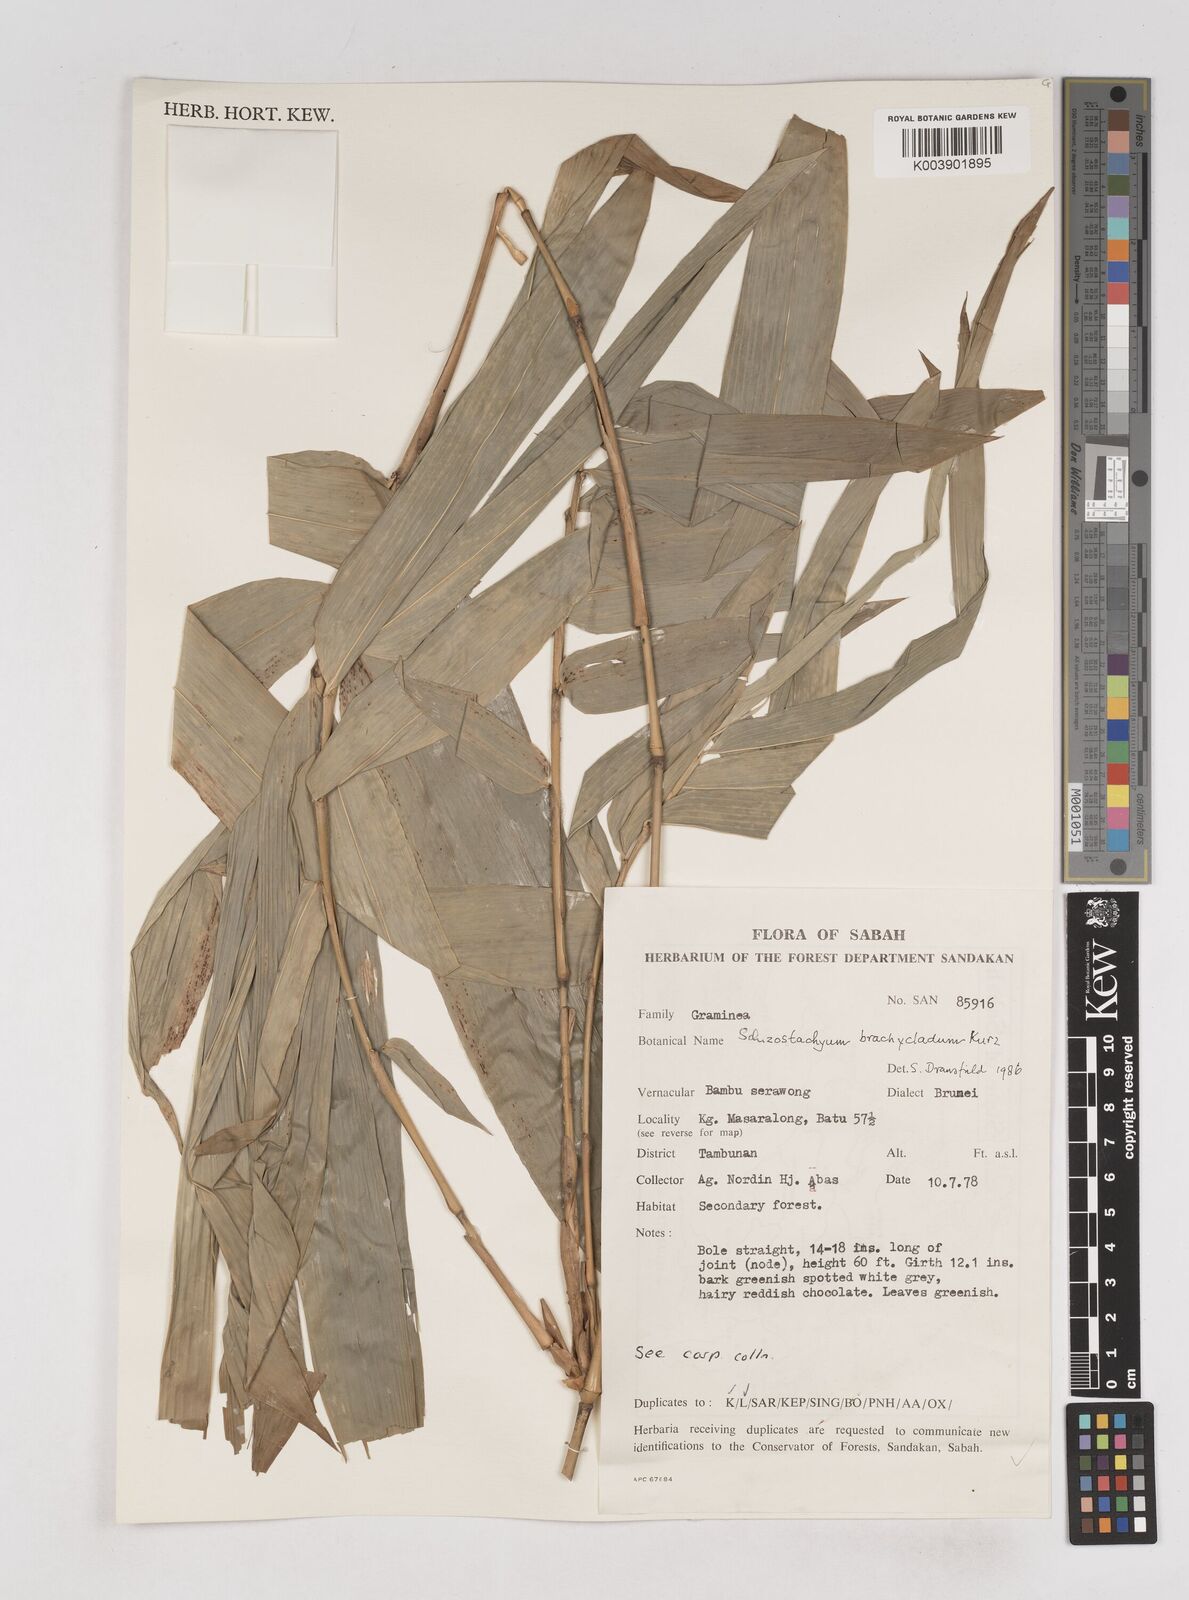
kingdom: Plantae
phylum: Tracheophyta
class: Liliopsida
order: Poales
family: Poaceae
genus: Schizostachyum
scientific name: Schizostachyum brachycladum
